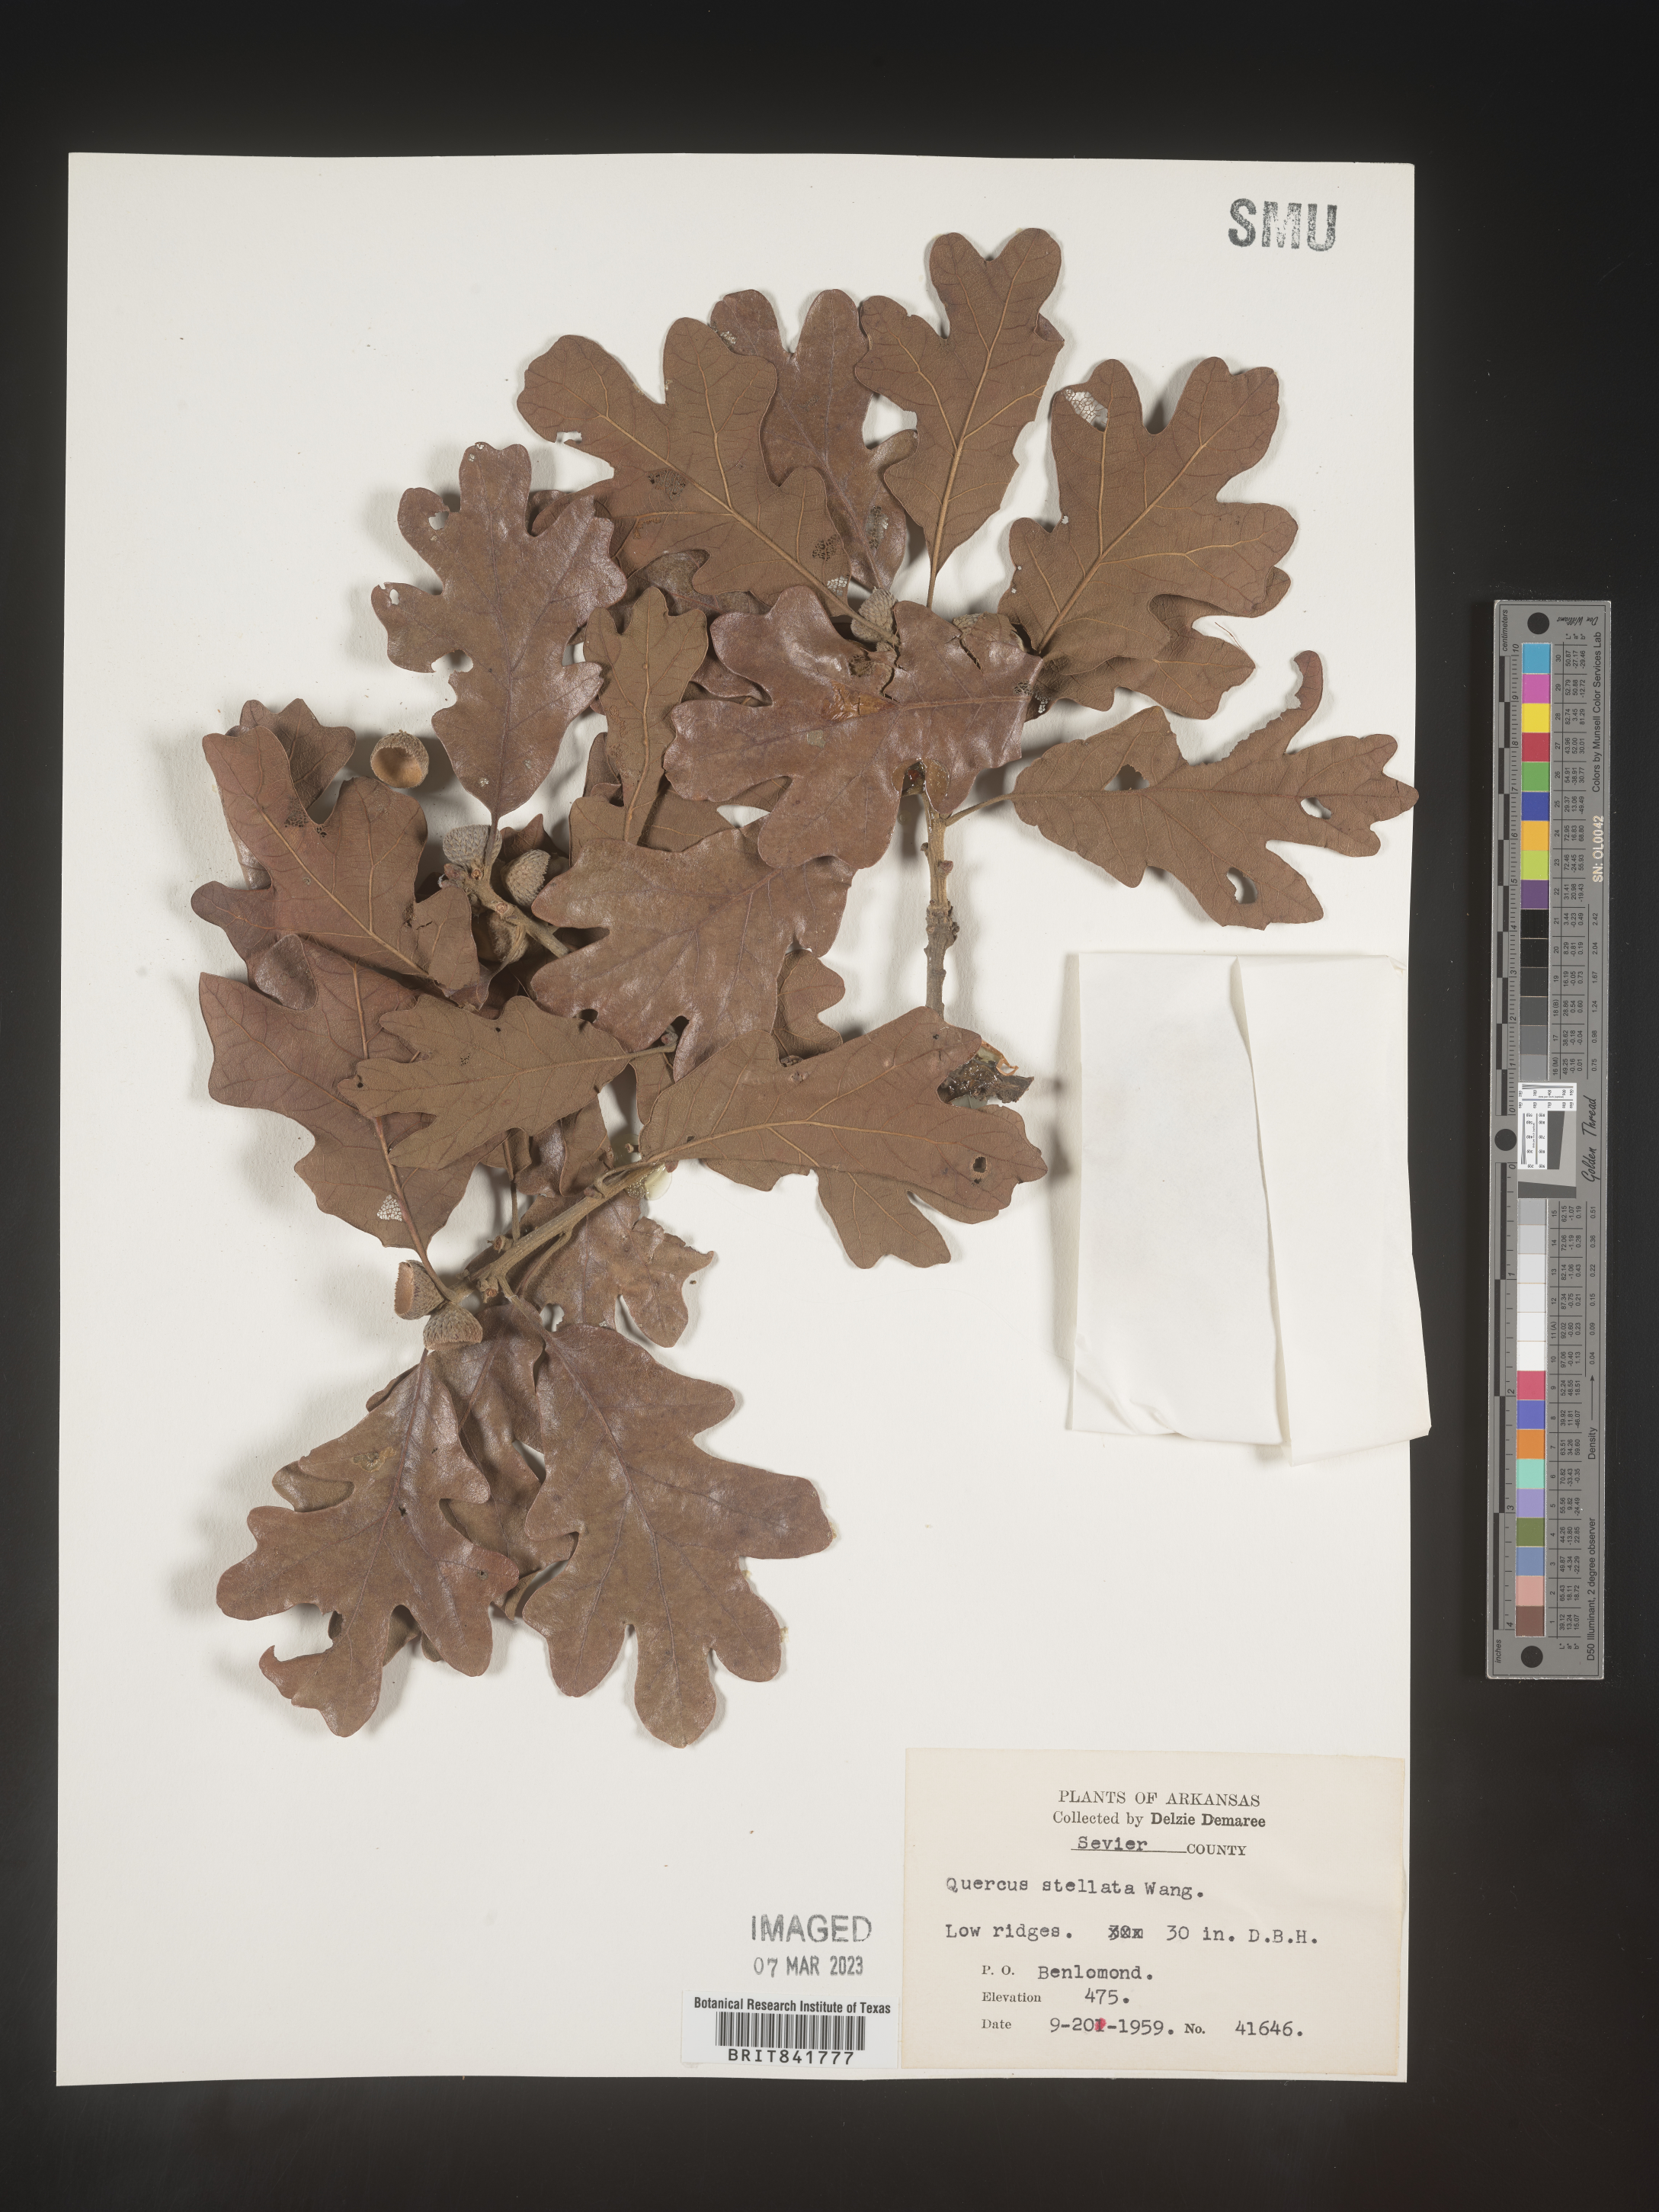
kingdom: Plantae
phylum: Tracheophyta
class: Magnoliopsida
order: Fagales
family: Fagaceae
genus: Quercus
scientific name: Quercus stellata
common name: Post oak
